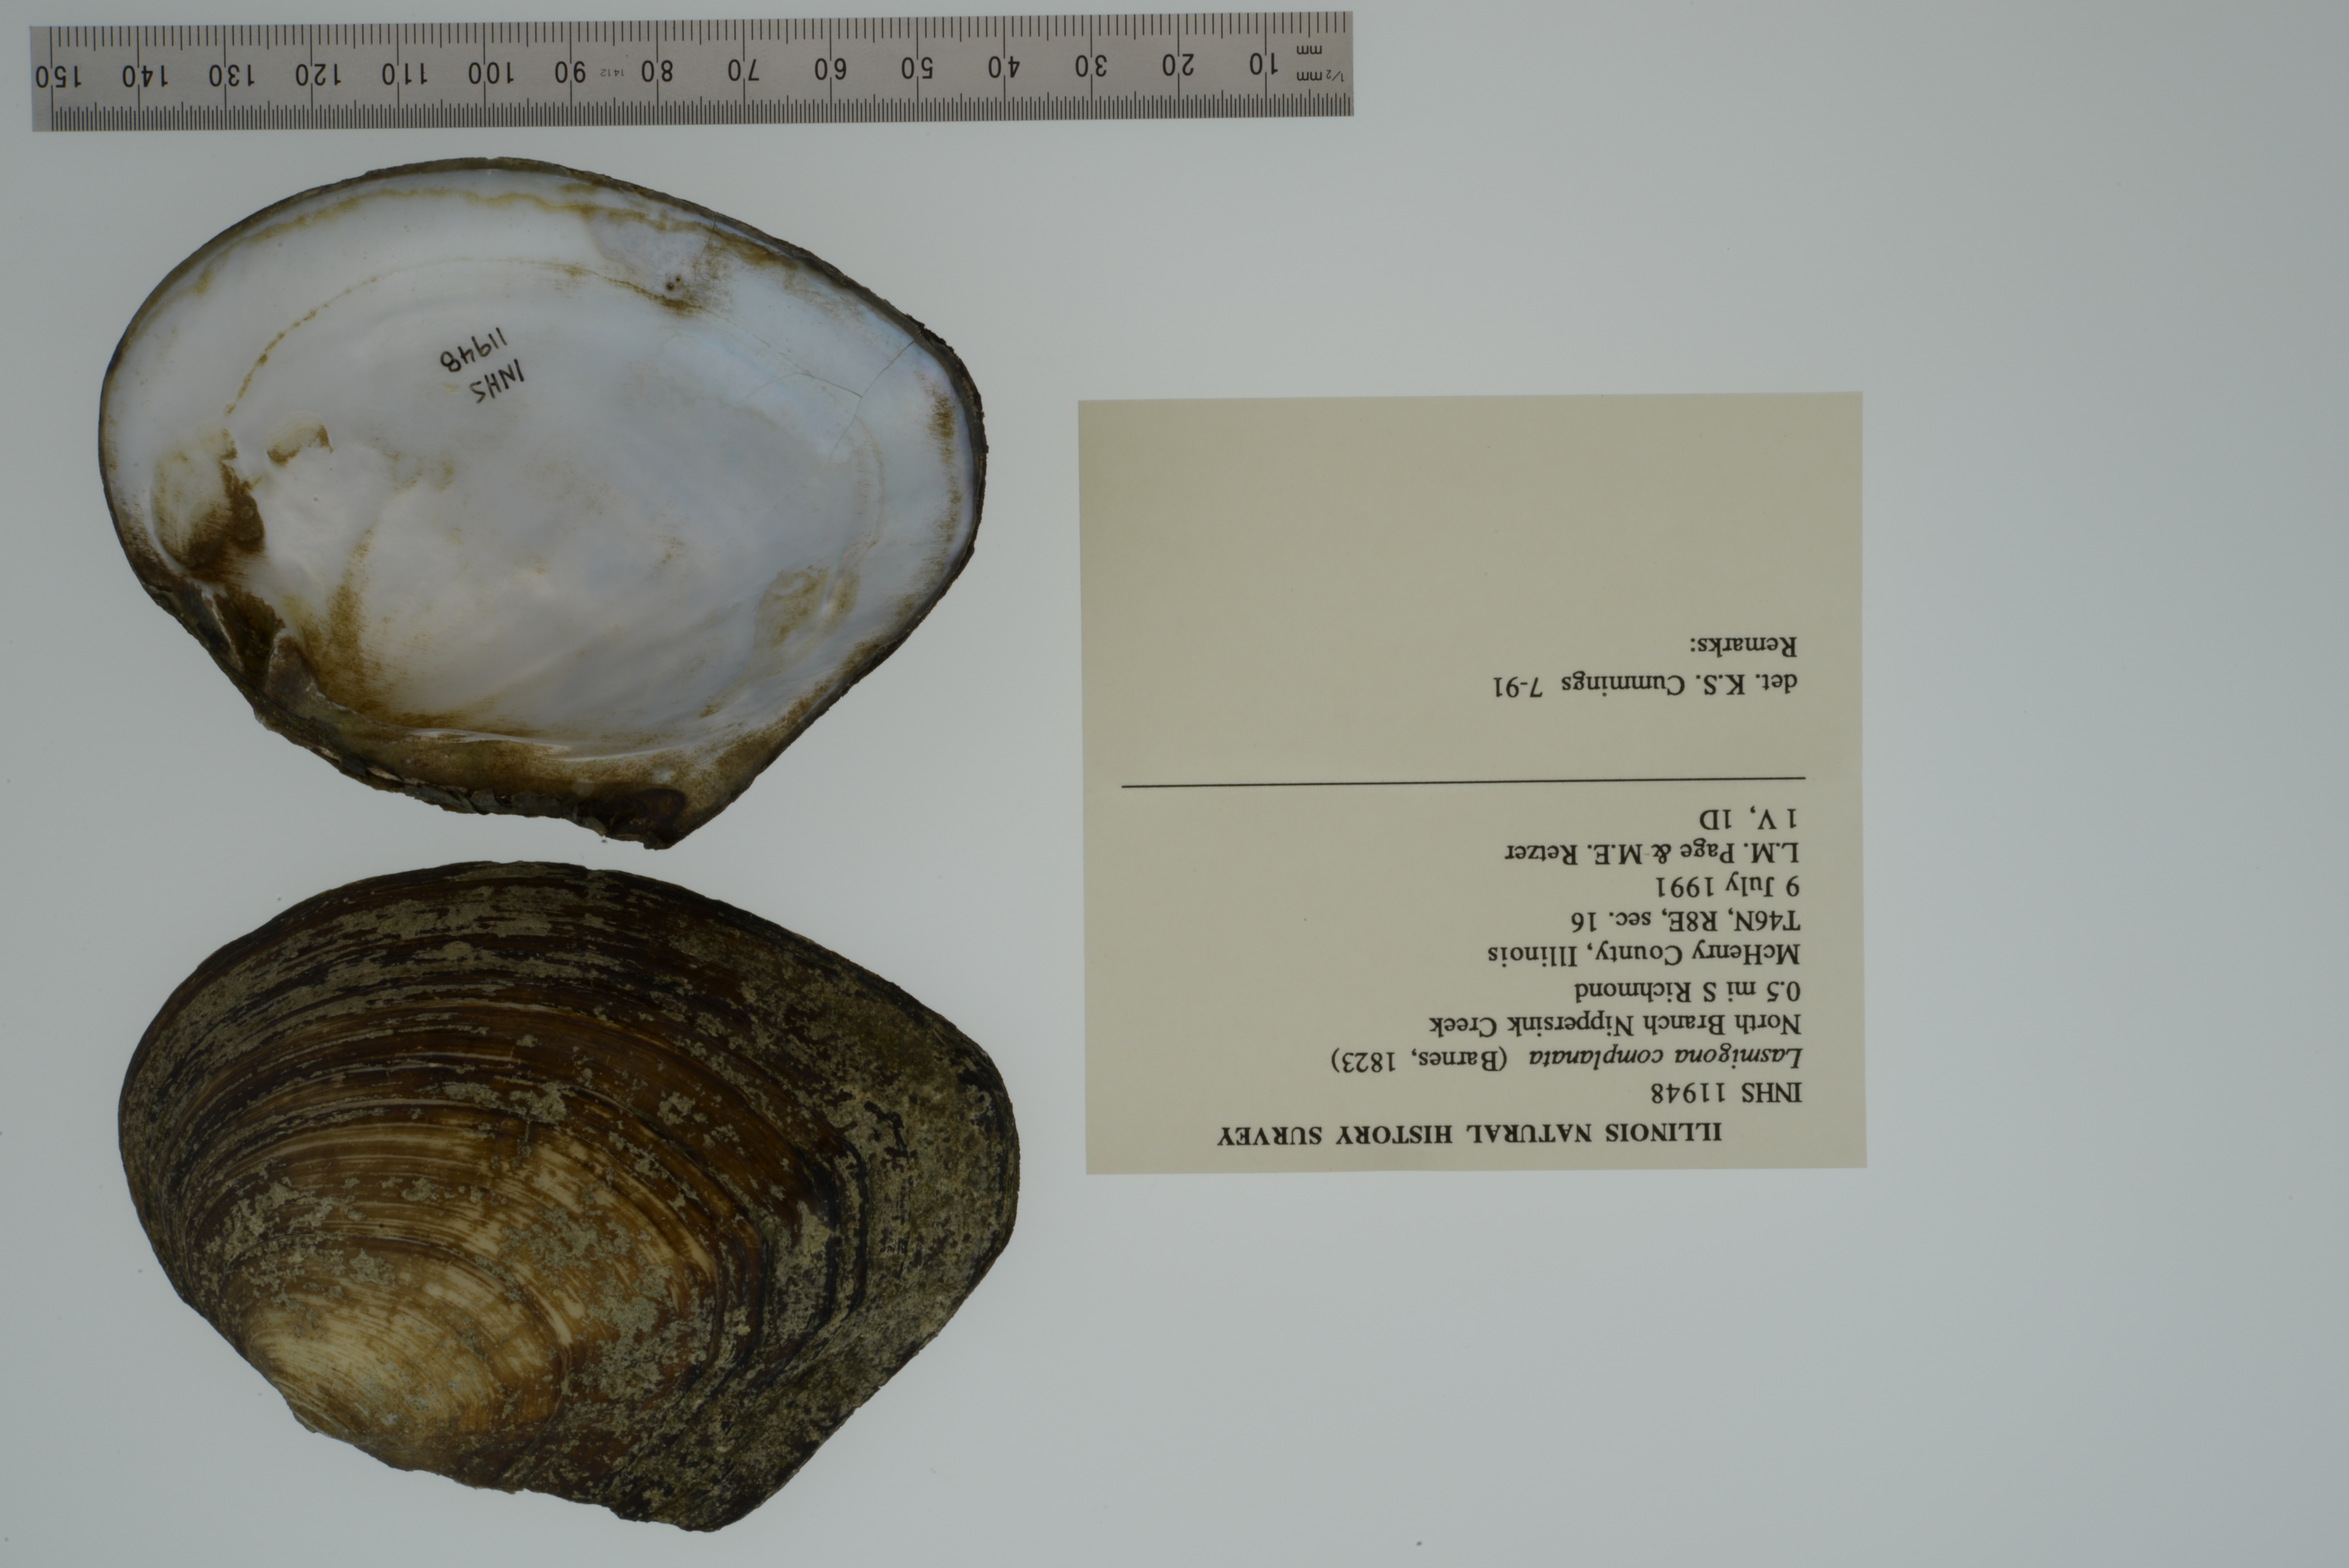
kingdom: Animalia
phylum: Mollusca
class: Bivalvia
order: Unionida
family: Unionidae
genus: Lasmigona
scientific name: Lasmigona complanata
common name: White heelsplitter
